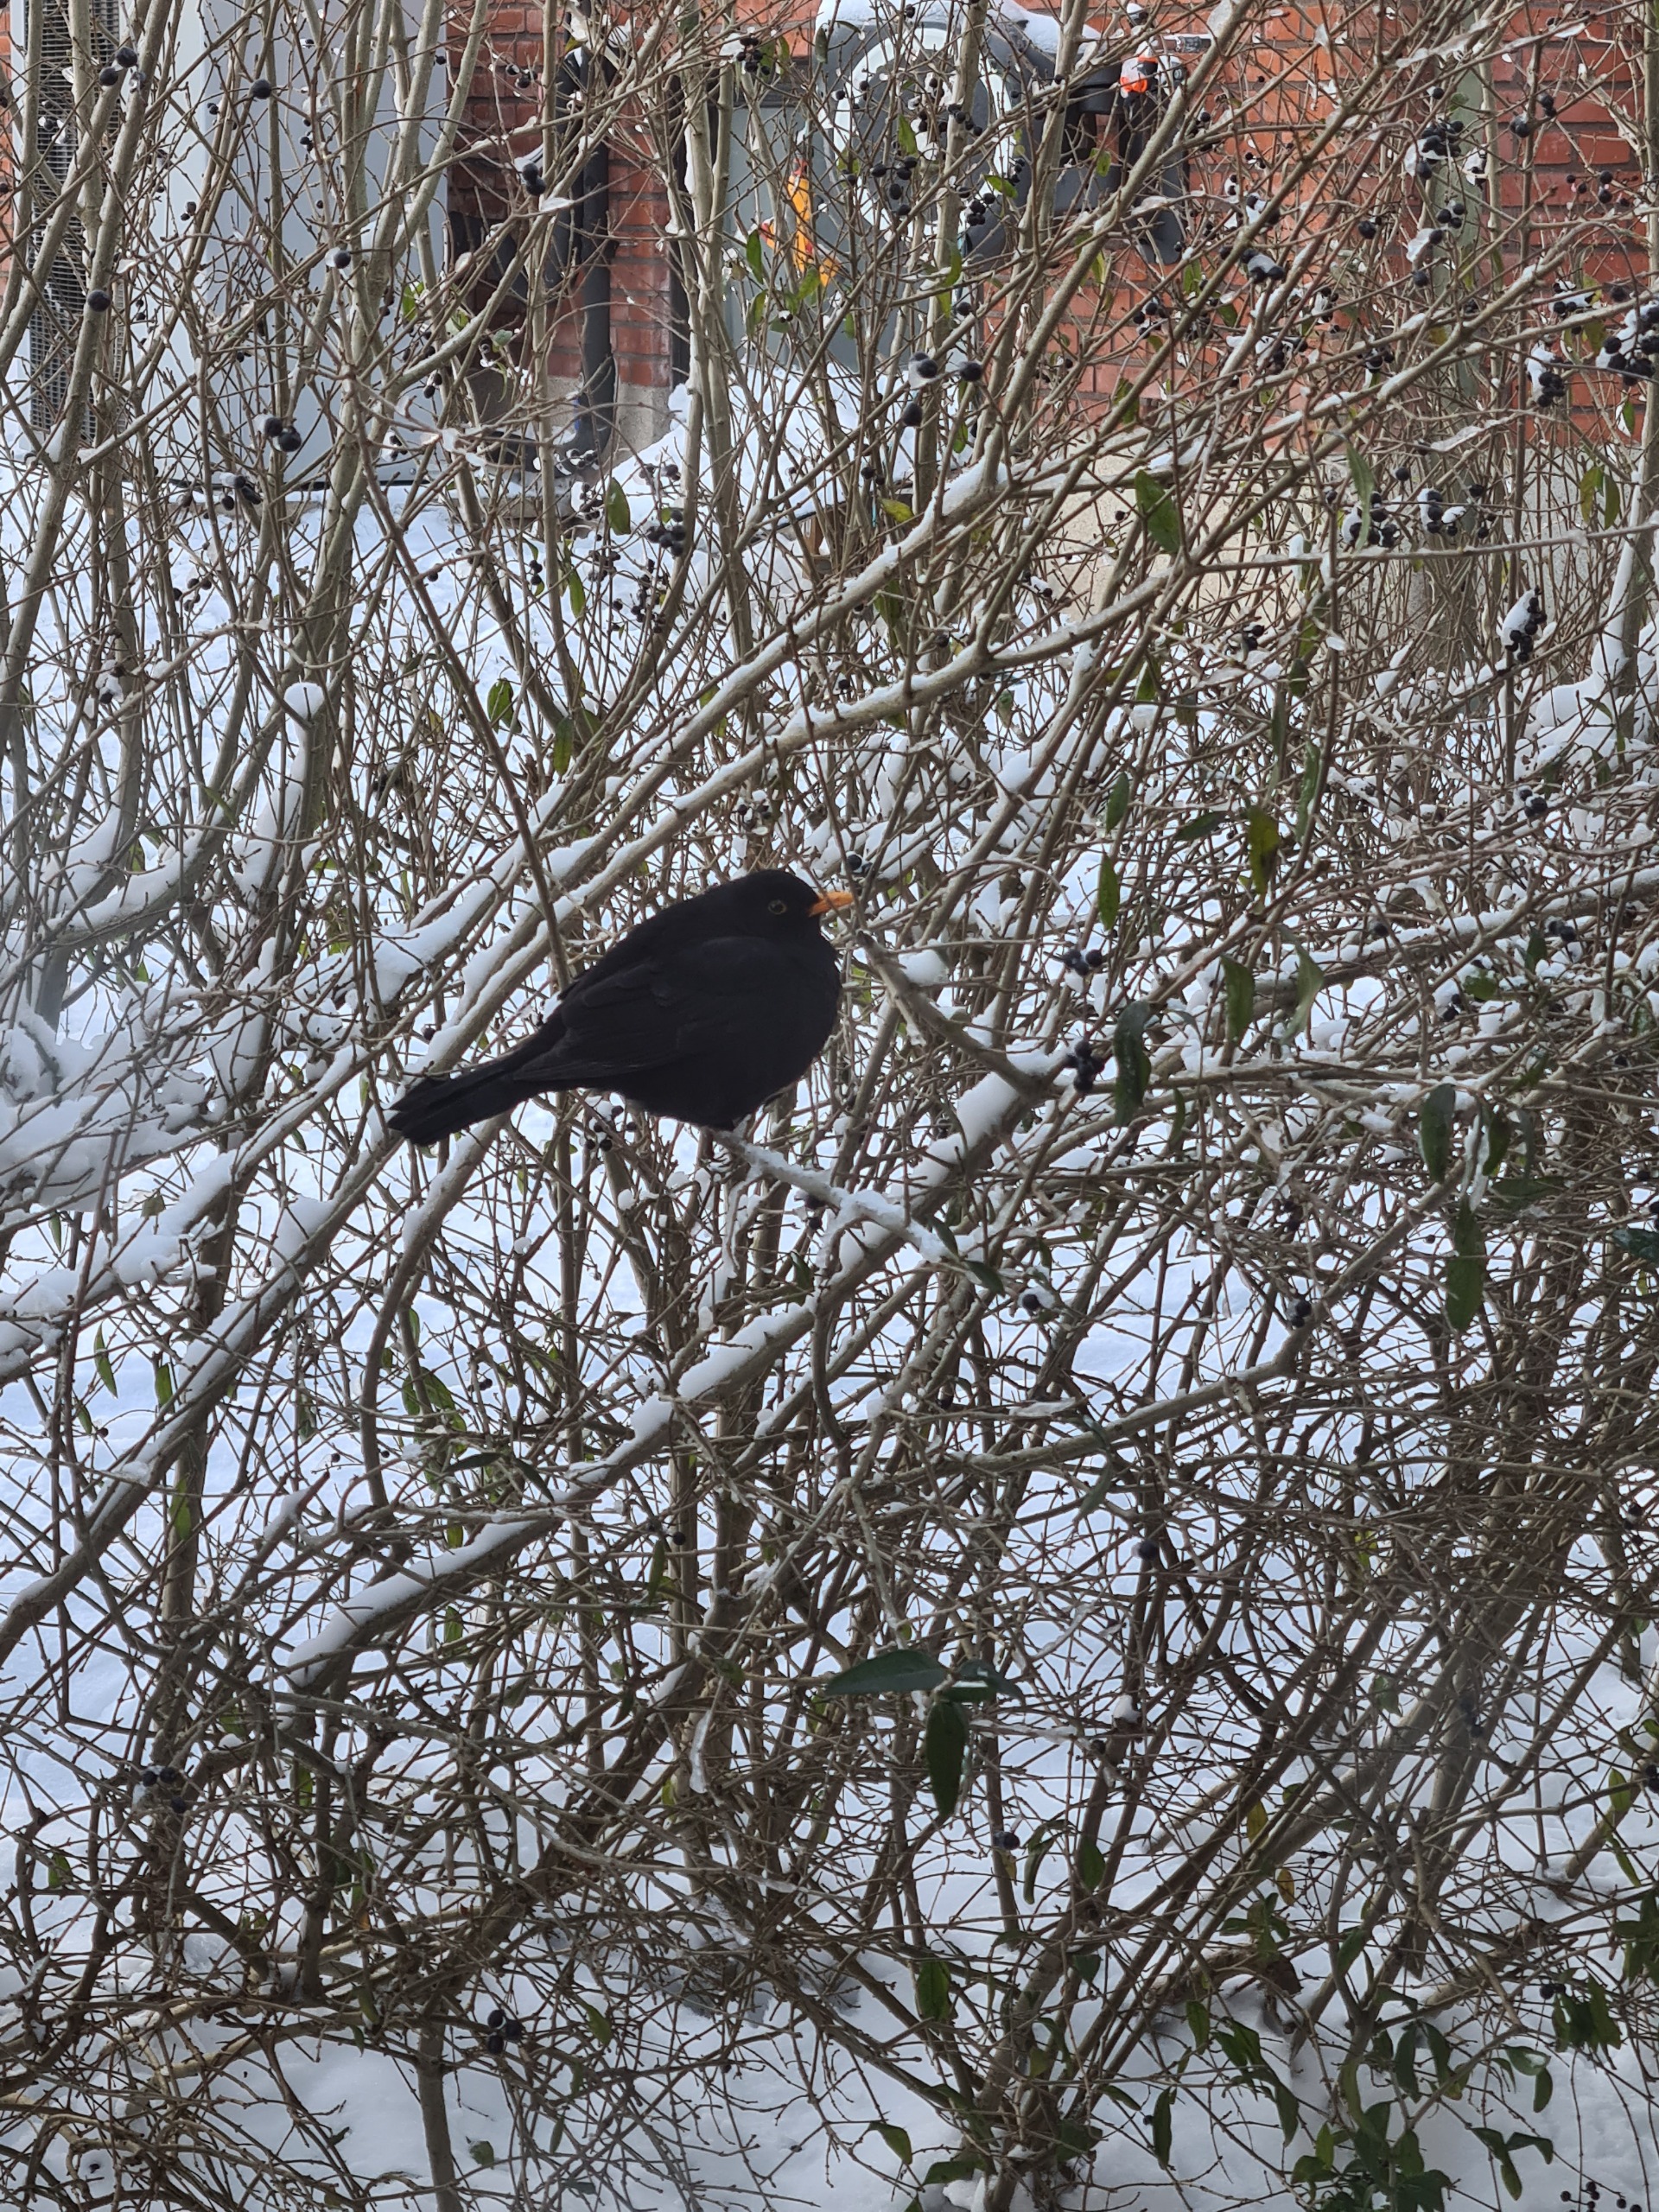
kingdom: Animalia
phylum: Chordata
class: Aves
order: Passeriformes
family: Turdidae
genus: Turdus
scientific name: Turdus merula
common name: Solsort
